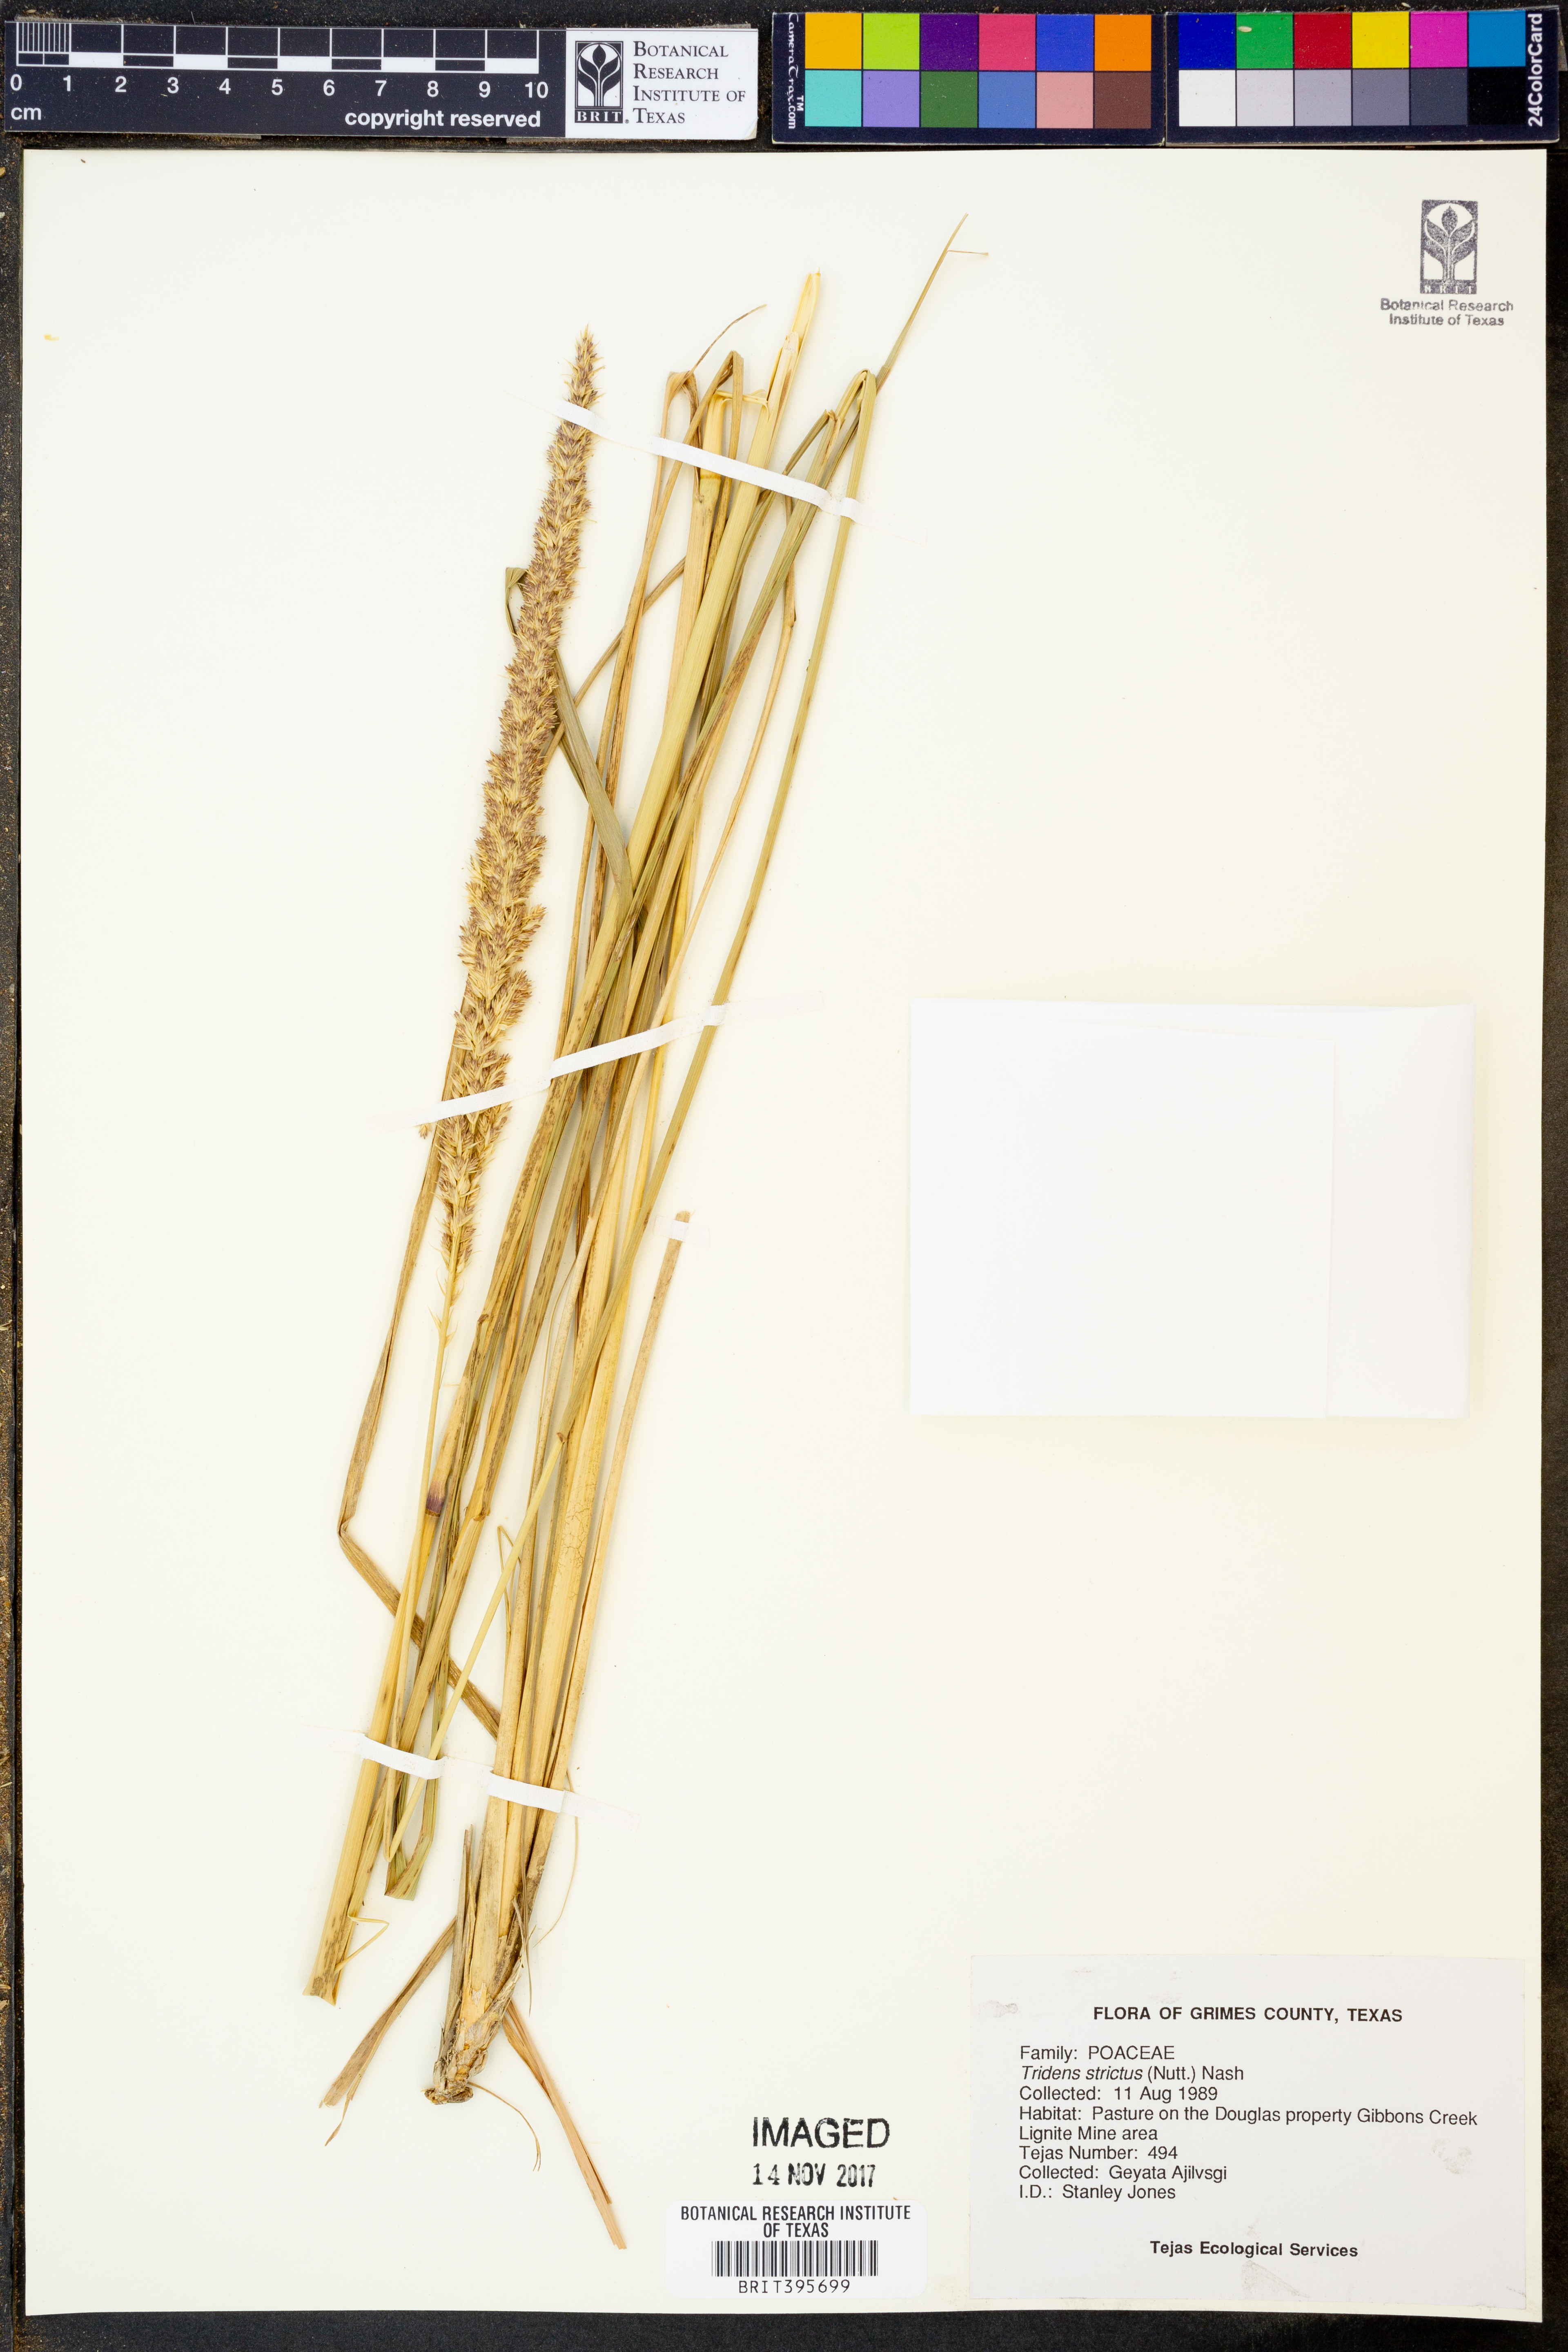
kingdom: Plantae
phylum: Tracheophyta
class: Liliopsida
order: Poales
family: Poaceae
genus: Tridens
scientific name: Tridens strictus
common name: Long-spike tridens
